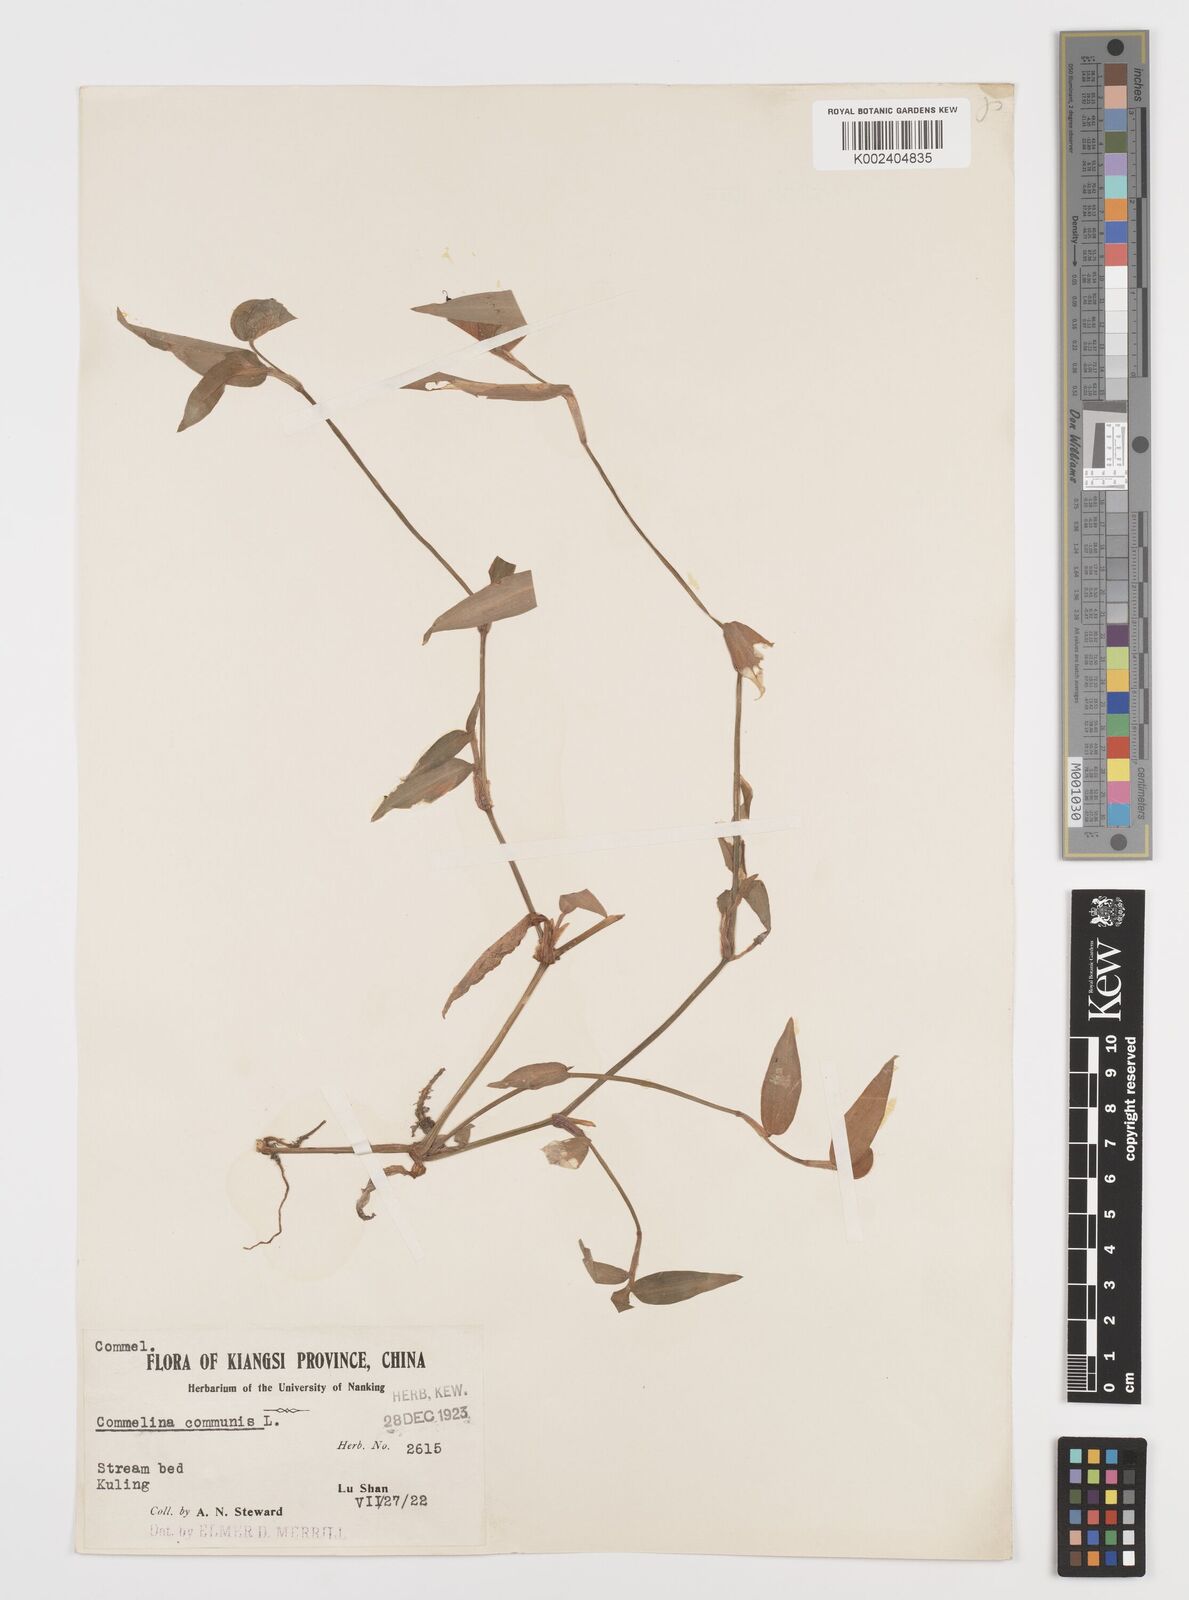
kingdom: Plantae
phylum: Tracheophyta
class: Liliopsida
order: Commelinales
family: Commelinaceae
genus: Commelina
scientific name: Commelina communis
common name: Asiatic dayflower
